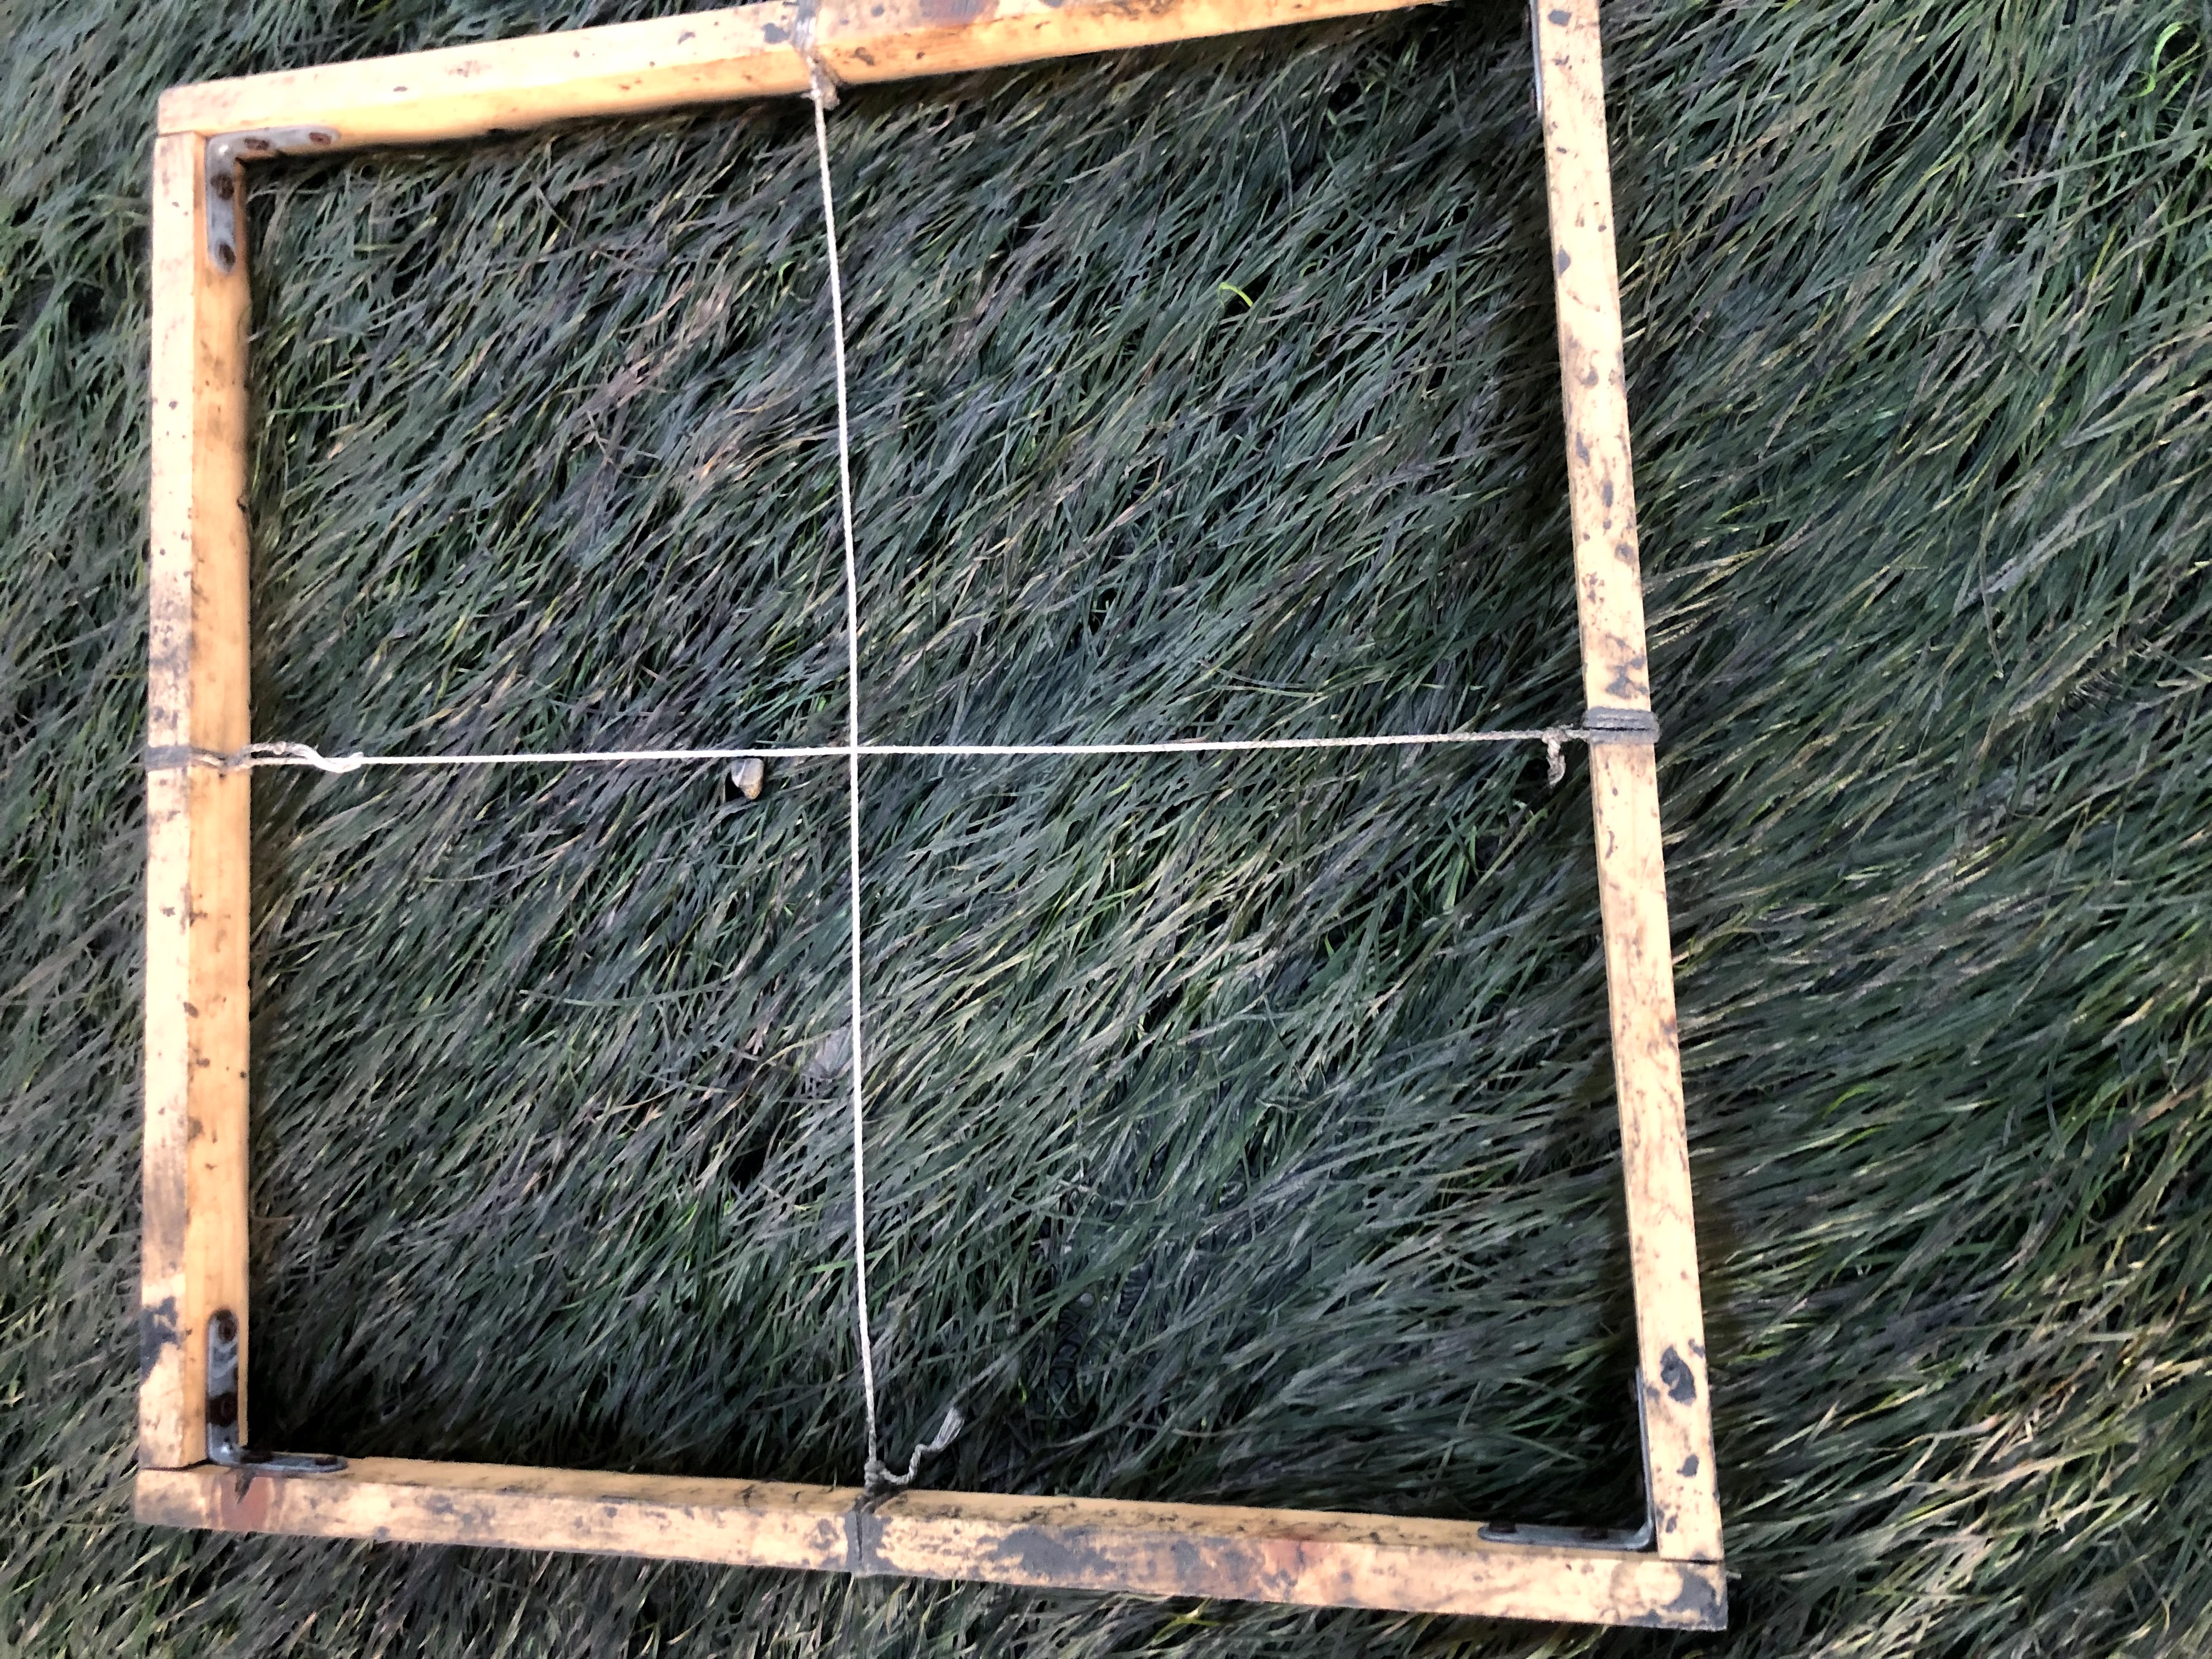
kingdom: Plantae
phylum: Tracheophyta
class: Liliopsida
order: Alismatales
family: Zosteraceae
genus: Zostera
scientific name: Zostera noltii
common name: Dwarf eelgrass
